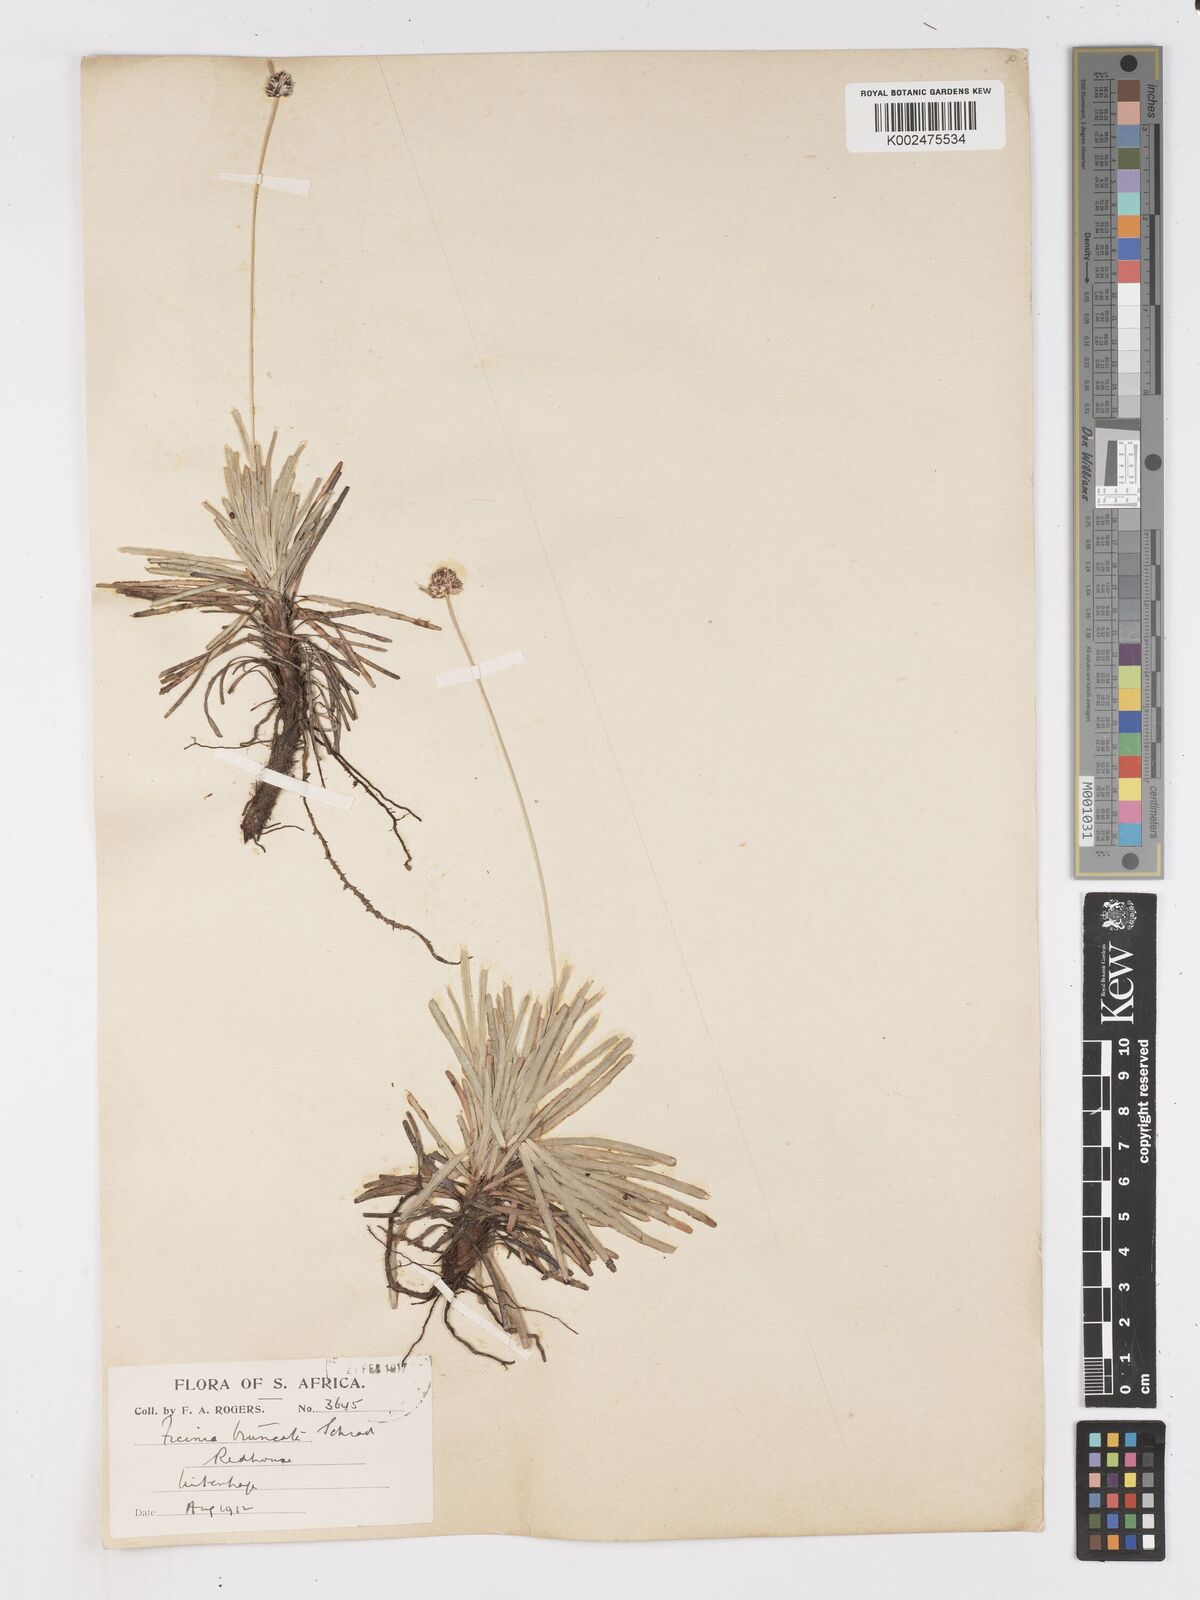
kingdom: Plantae
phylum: Tracheophyta
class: Liliopsida
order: Poales
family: Cyperaceae
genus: Ficinia
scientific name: Ficinia truncata
